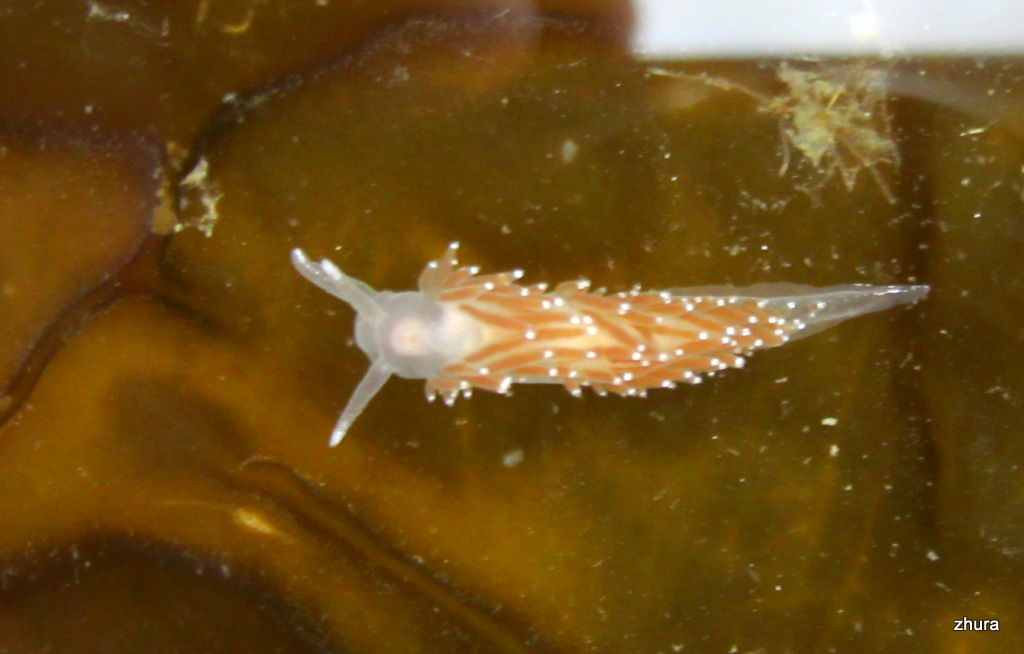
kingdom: Animalia
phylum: Mollusca
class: Gastropoda
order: Nudibranchia
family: Coryphellidae
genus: Coryphella
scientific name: Coryphella verrucosa
